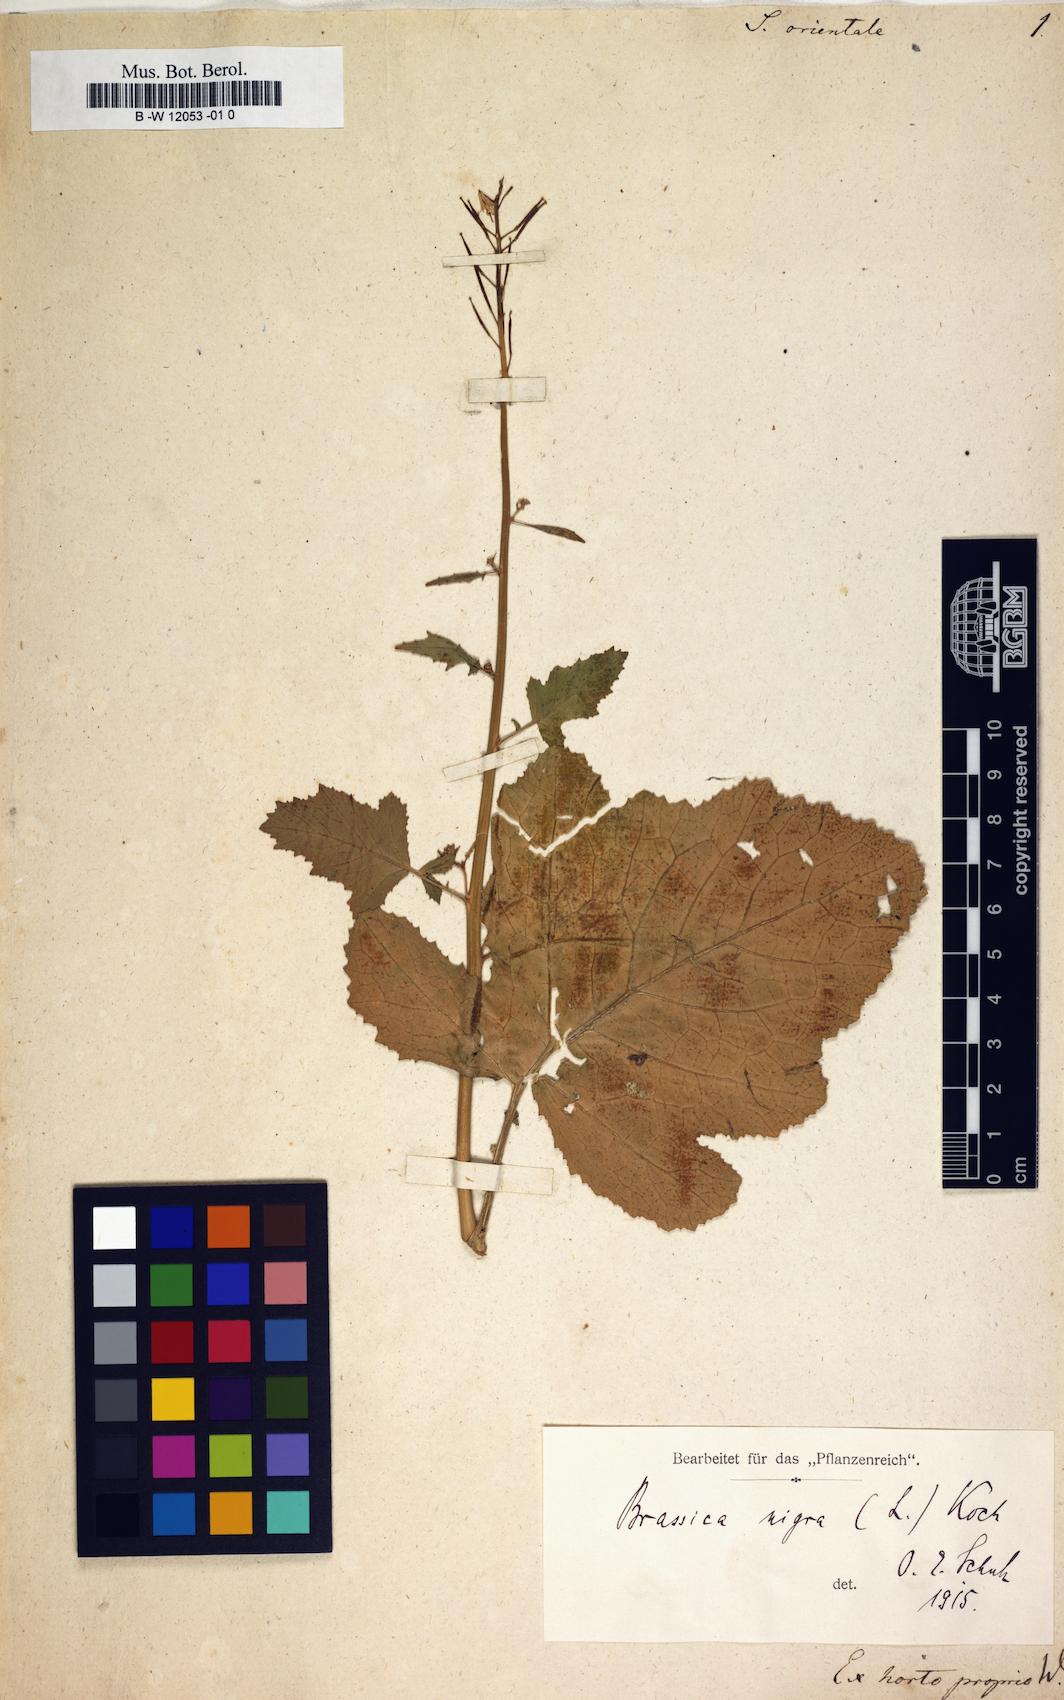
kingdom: Plantae
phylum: Tracheophyta
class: Magnoliopsida
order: Brassicales
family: Brassicaceae
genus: Sisymbrium
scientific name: Sisymbrium orientale
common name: Eastern rocket
